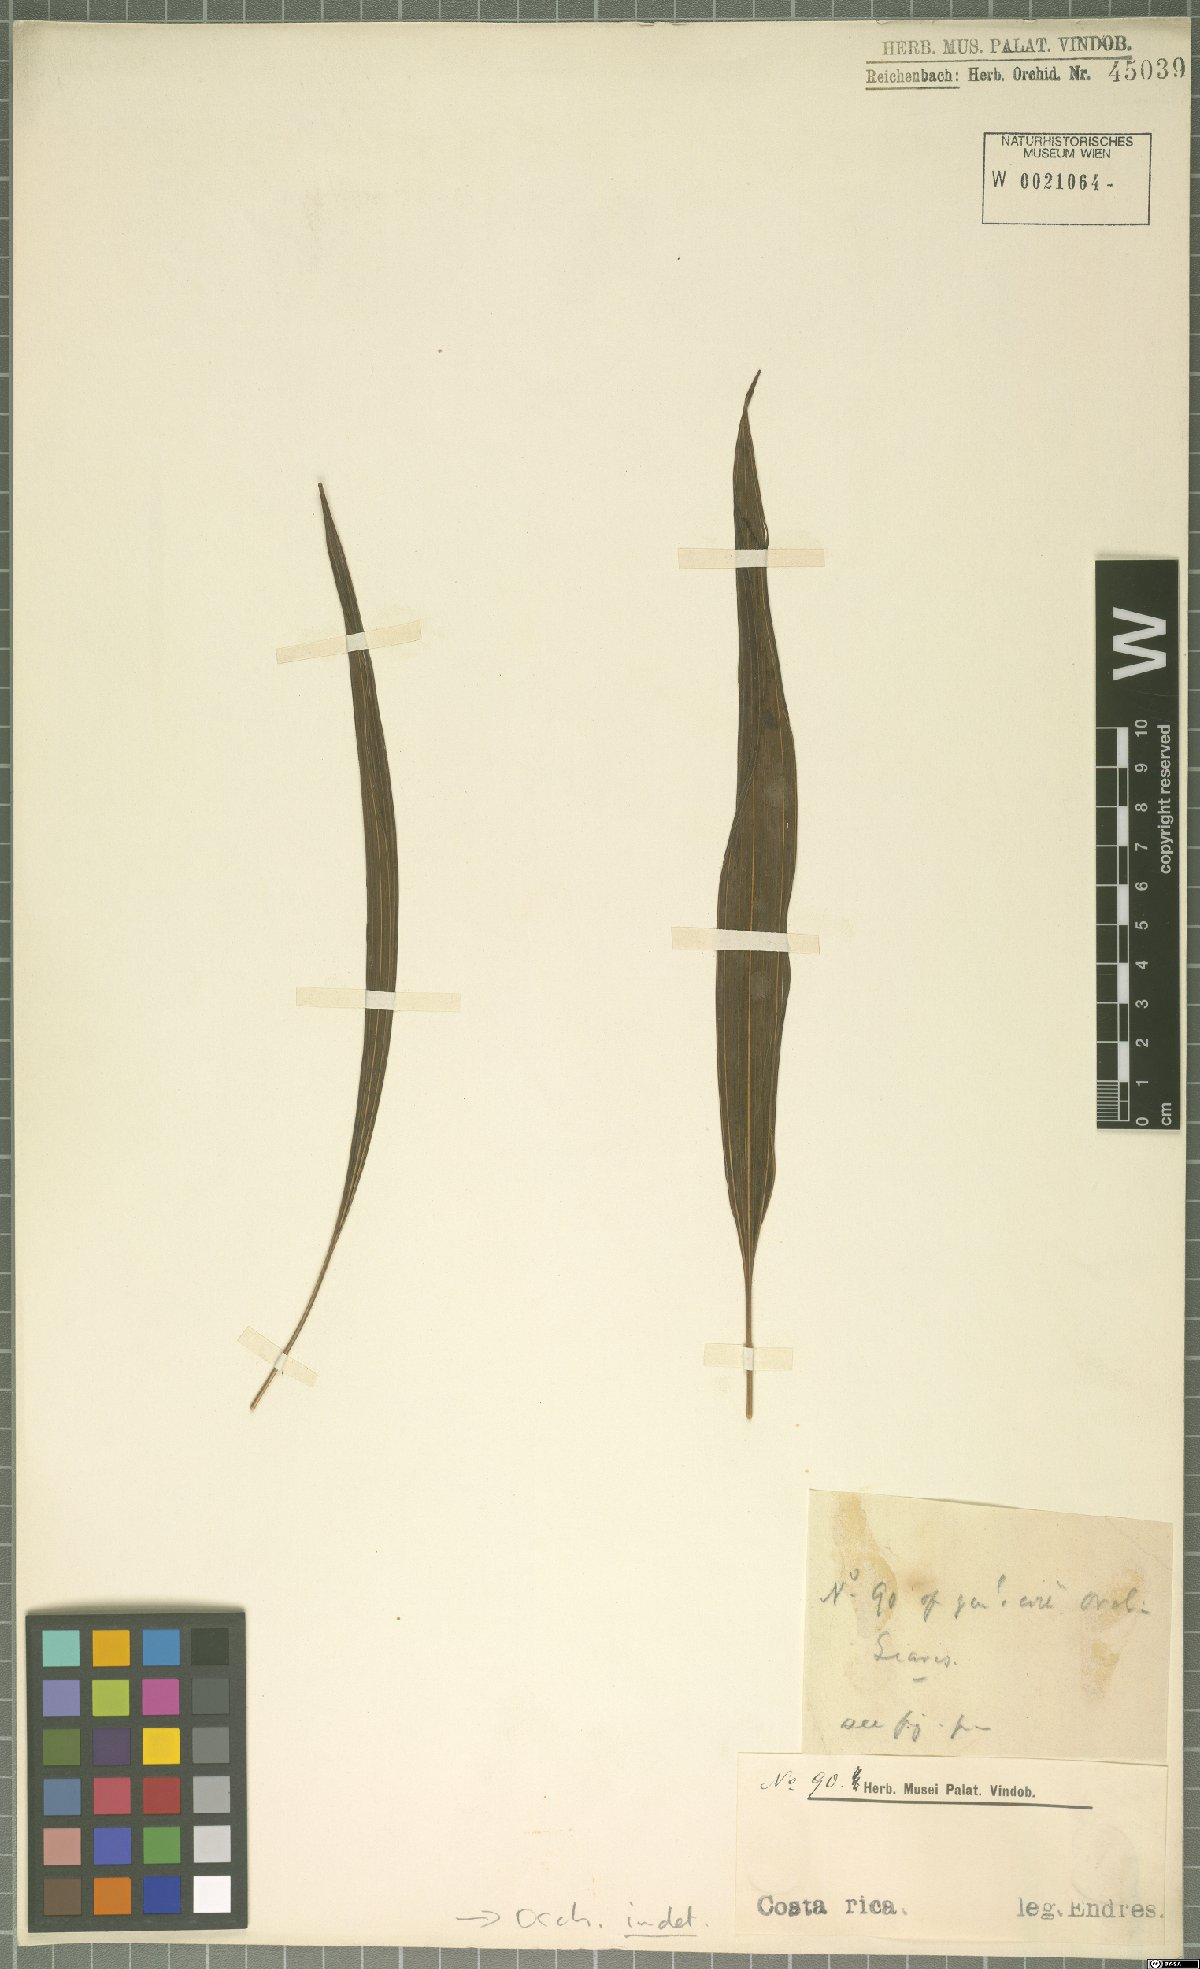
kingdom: Plantae
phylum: Tracheophyta
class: Liliopsida
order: Asparagales
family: Orchidaceae
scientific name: Orchidaceae
